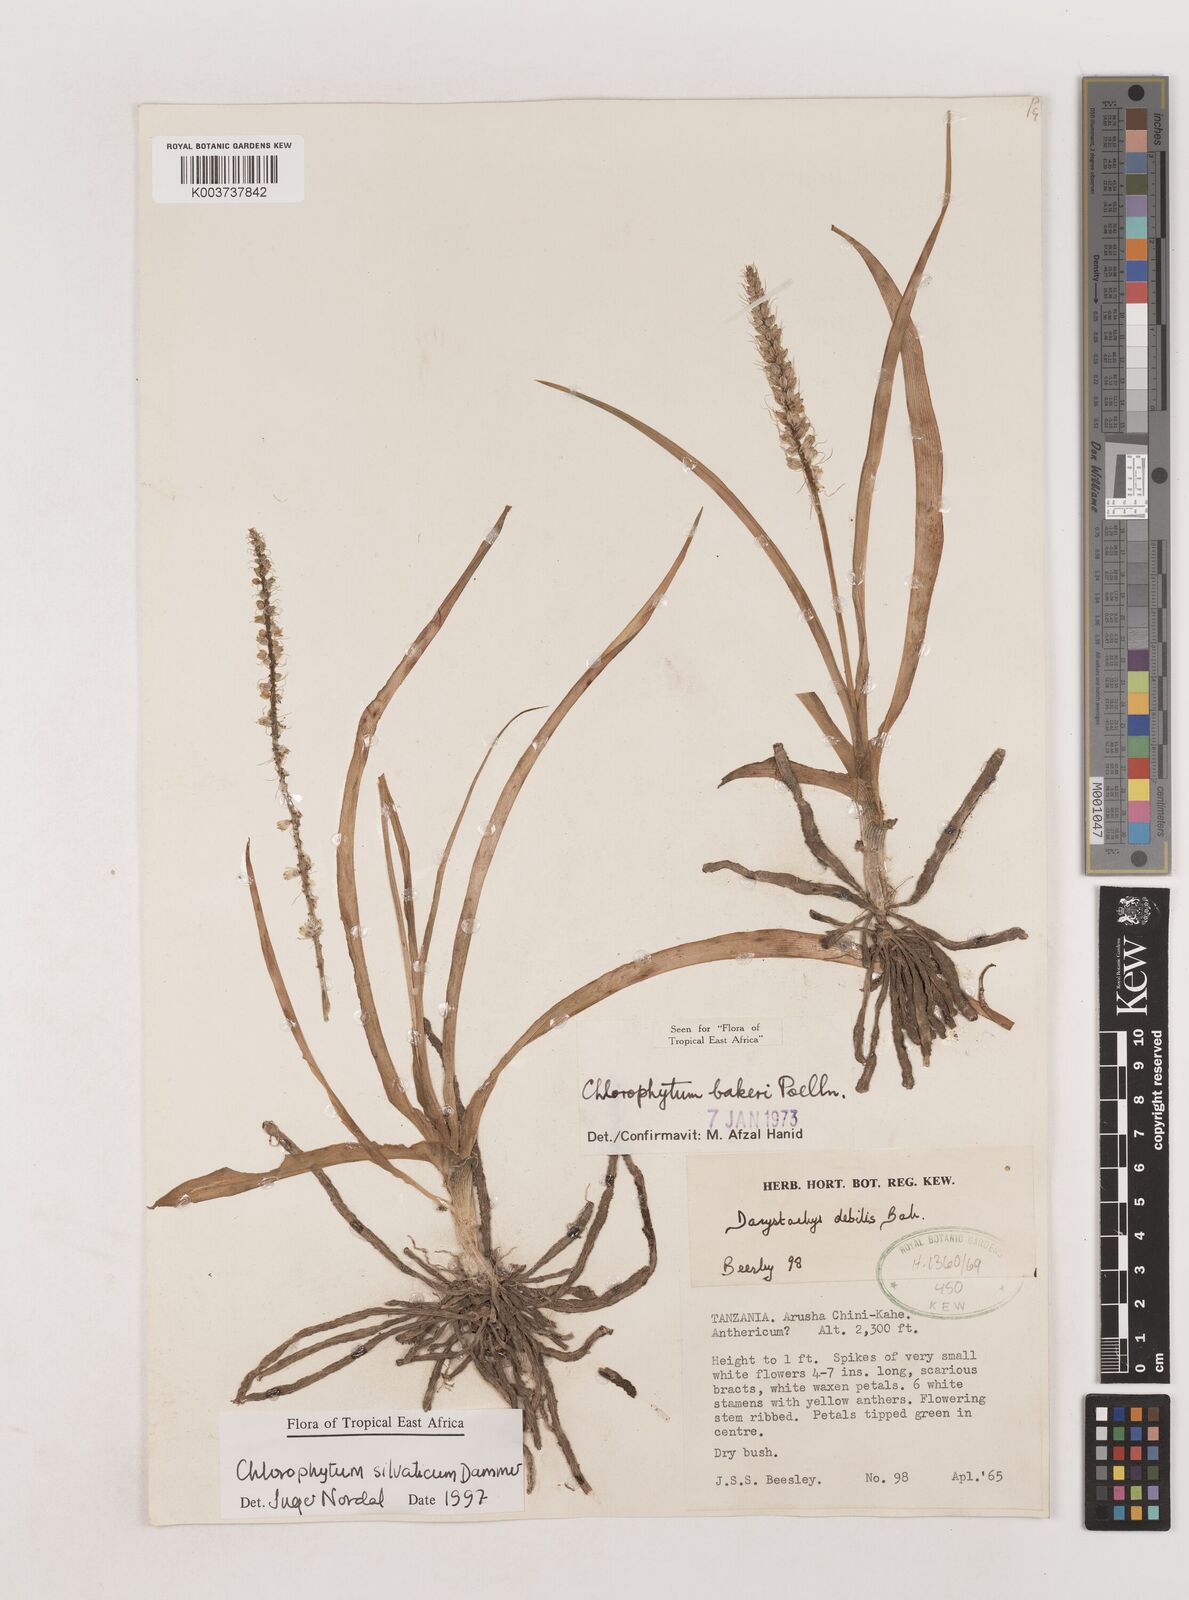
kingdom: Plantae
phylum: Tracheophyta
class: Liliopsida
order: Asparagales
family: Asparagaceae
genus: Chlorophytum
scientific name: Chlorophytum africanum
